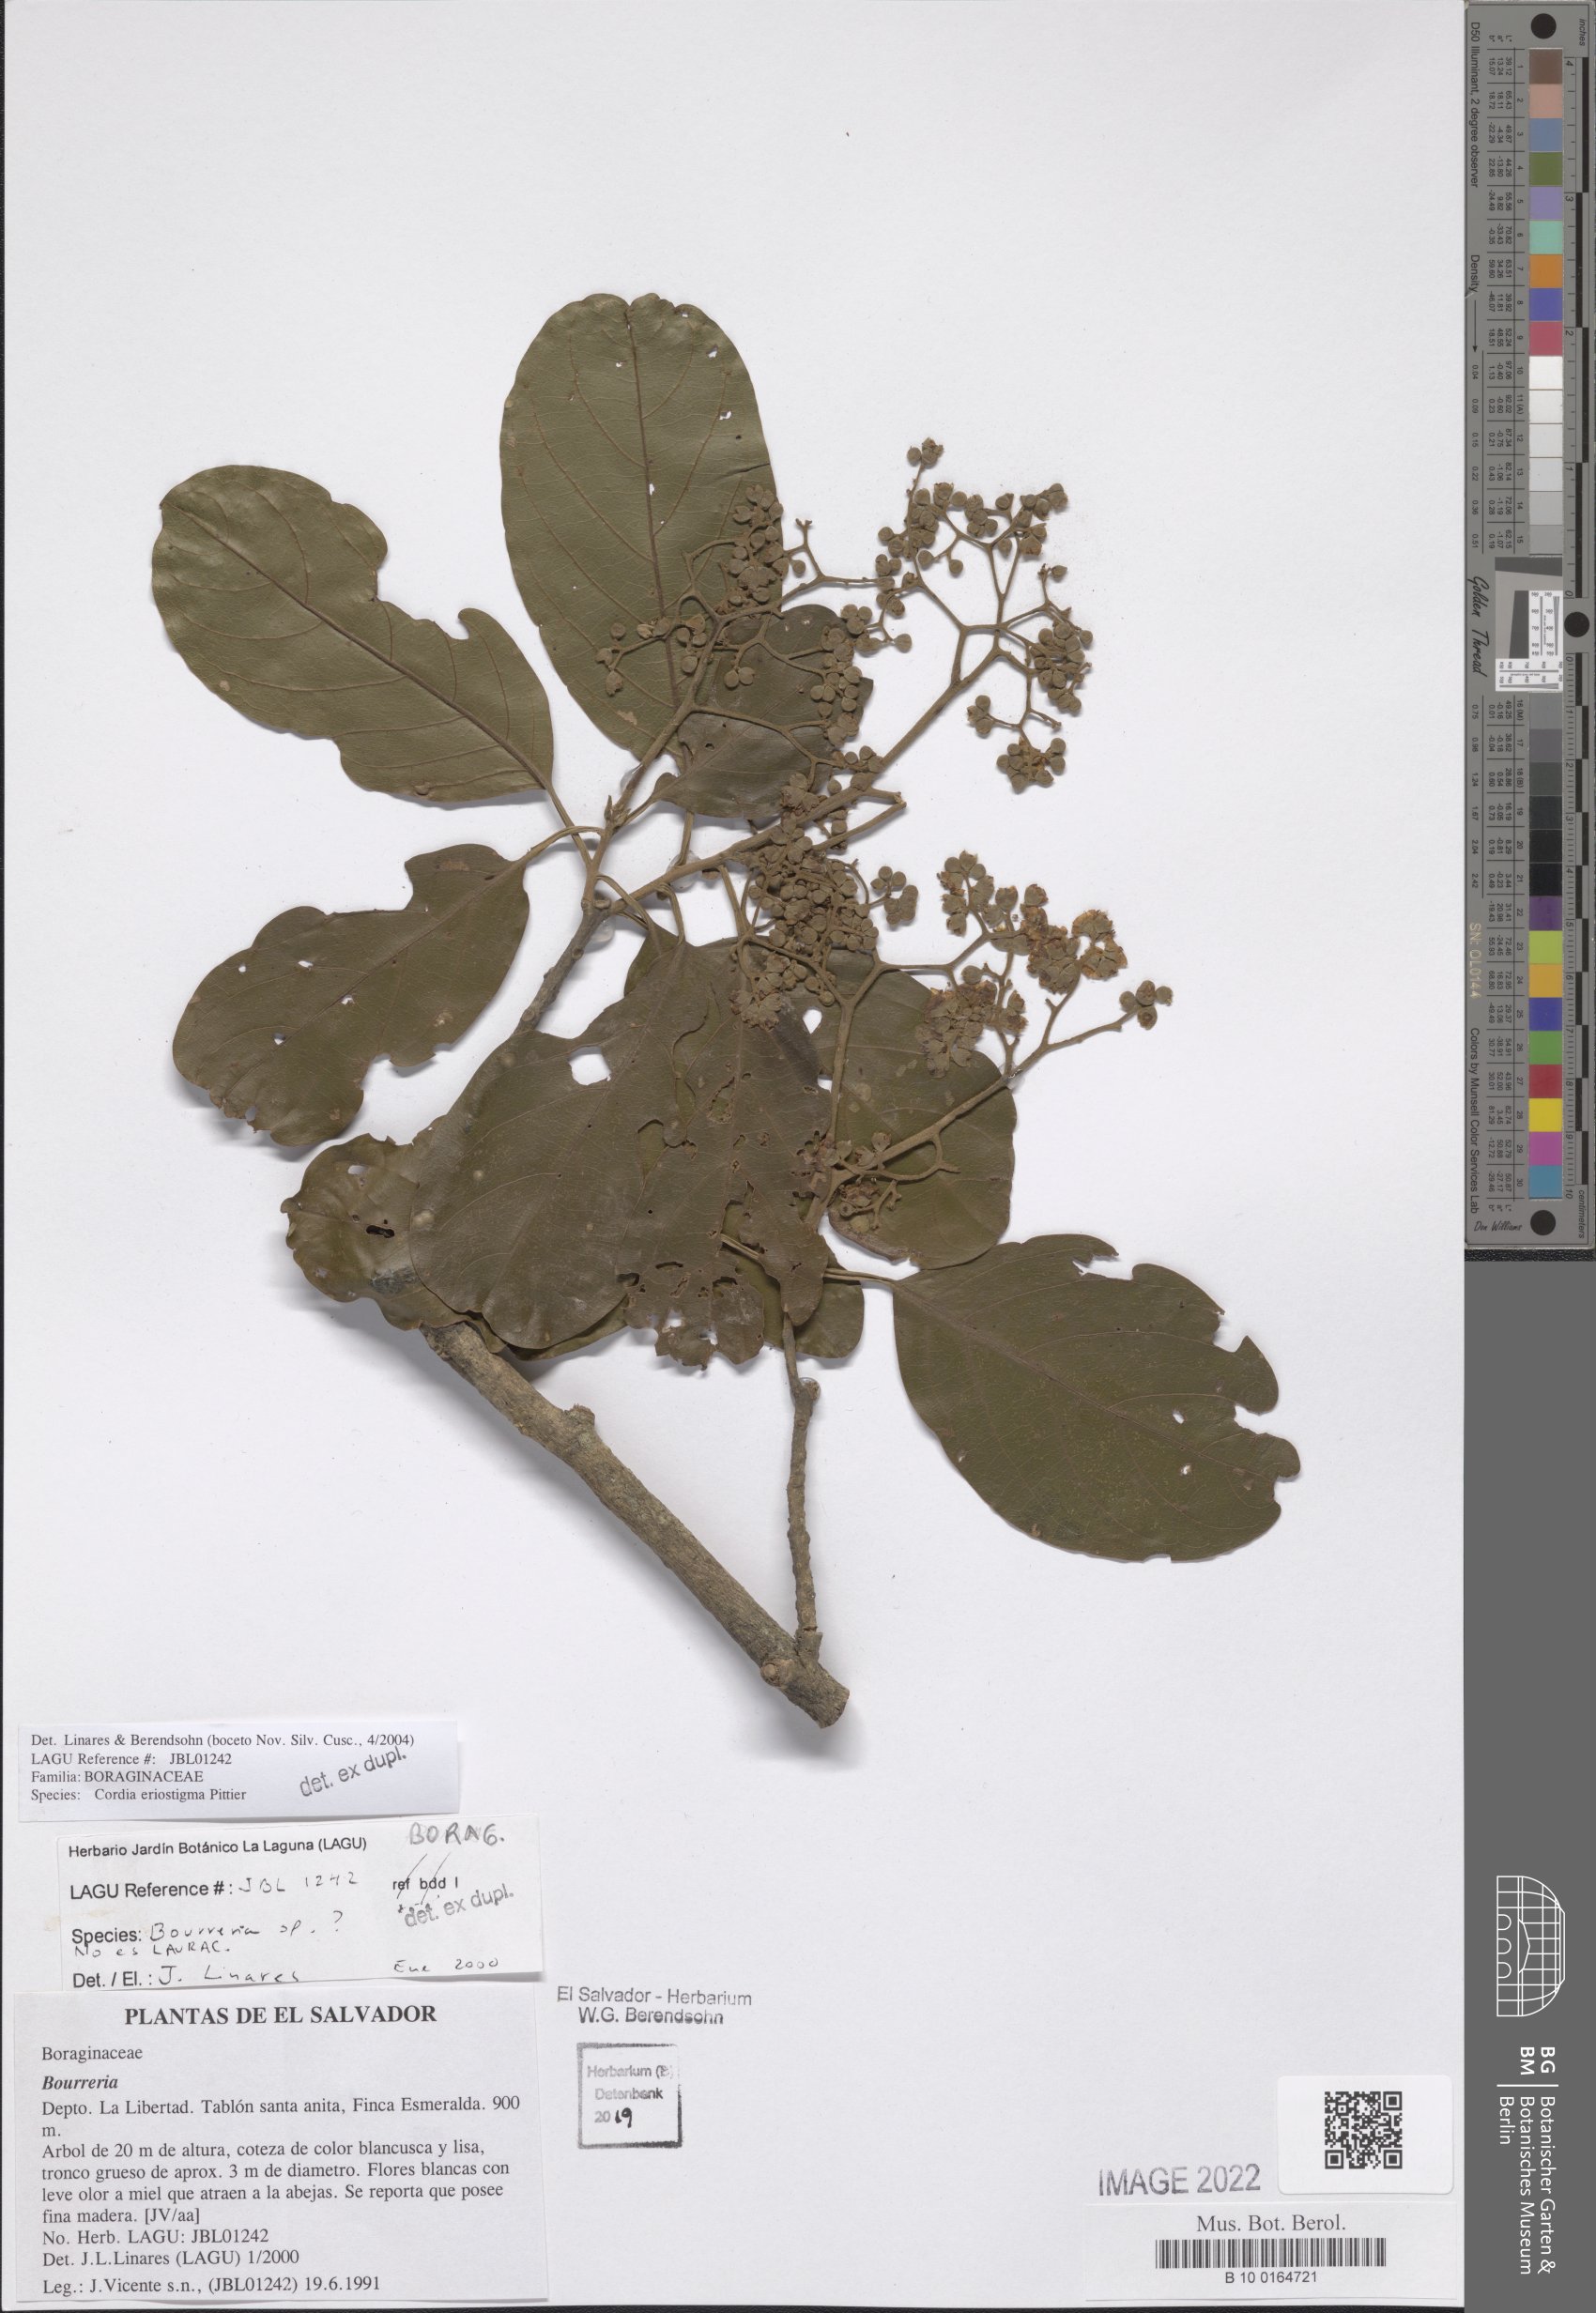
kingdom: Plantae
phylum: Tracheophyta
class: Magnoliopsida
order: Boraginales
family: Cordiaceae
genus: Cordia
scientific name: Cordia eriostigma
